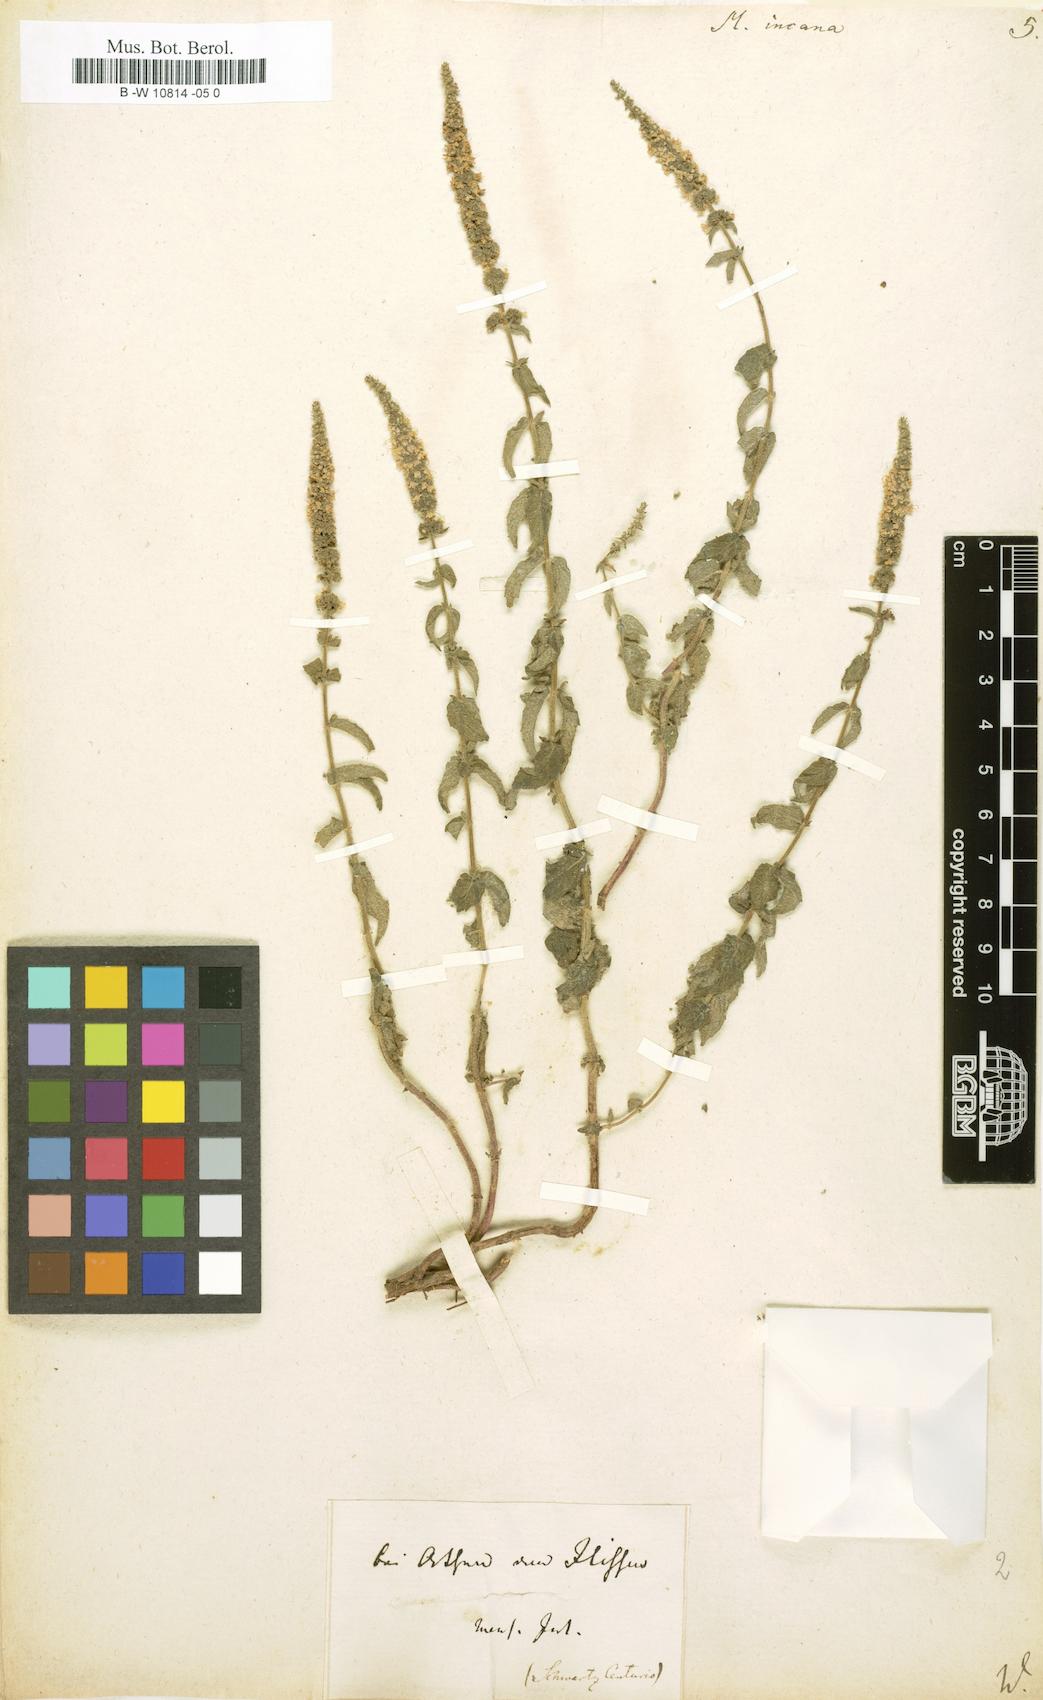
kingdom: Plantae
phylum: Tracheophyta
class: Magnoliopsida
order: Lamiales
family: Lamiaceae
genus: Mentha
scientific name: Mentha longifolia
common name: Horse mint
